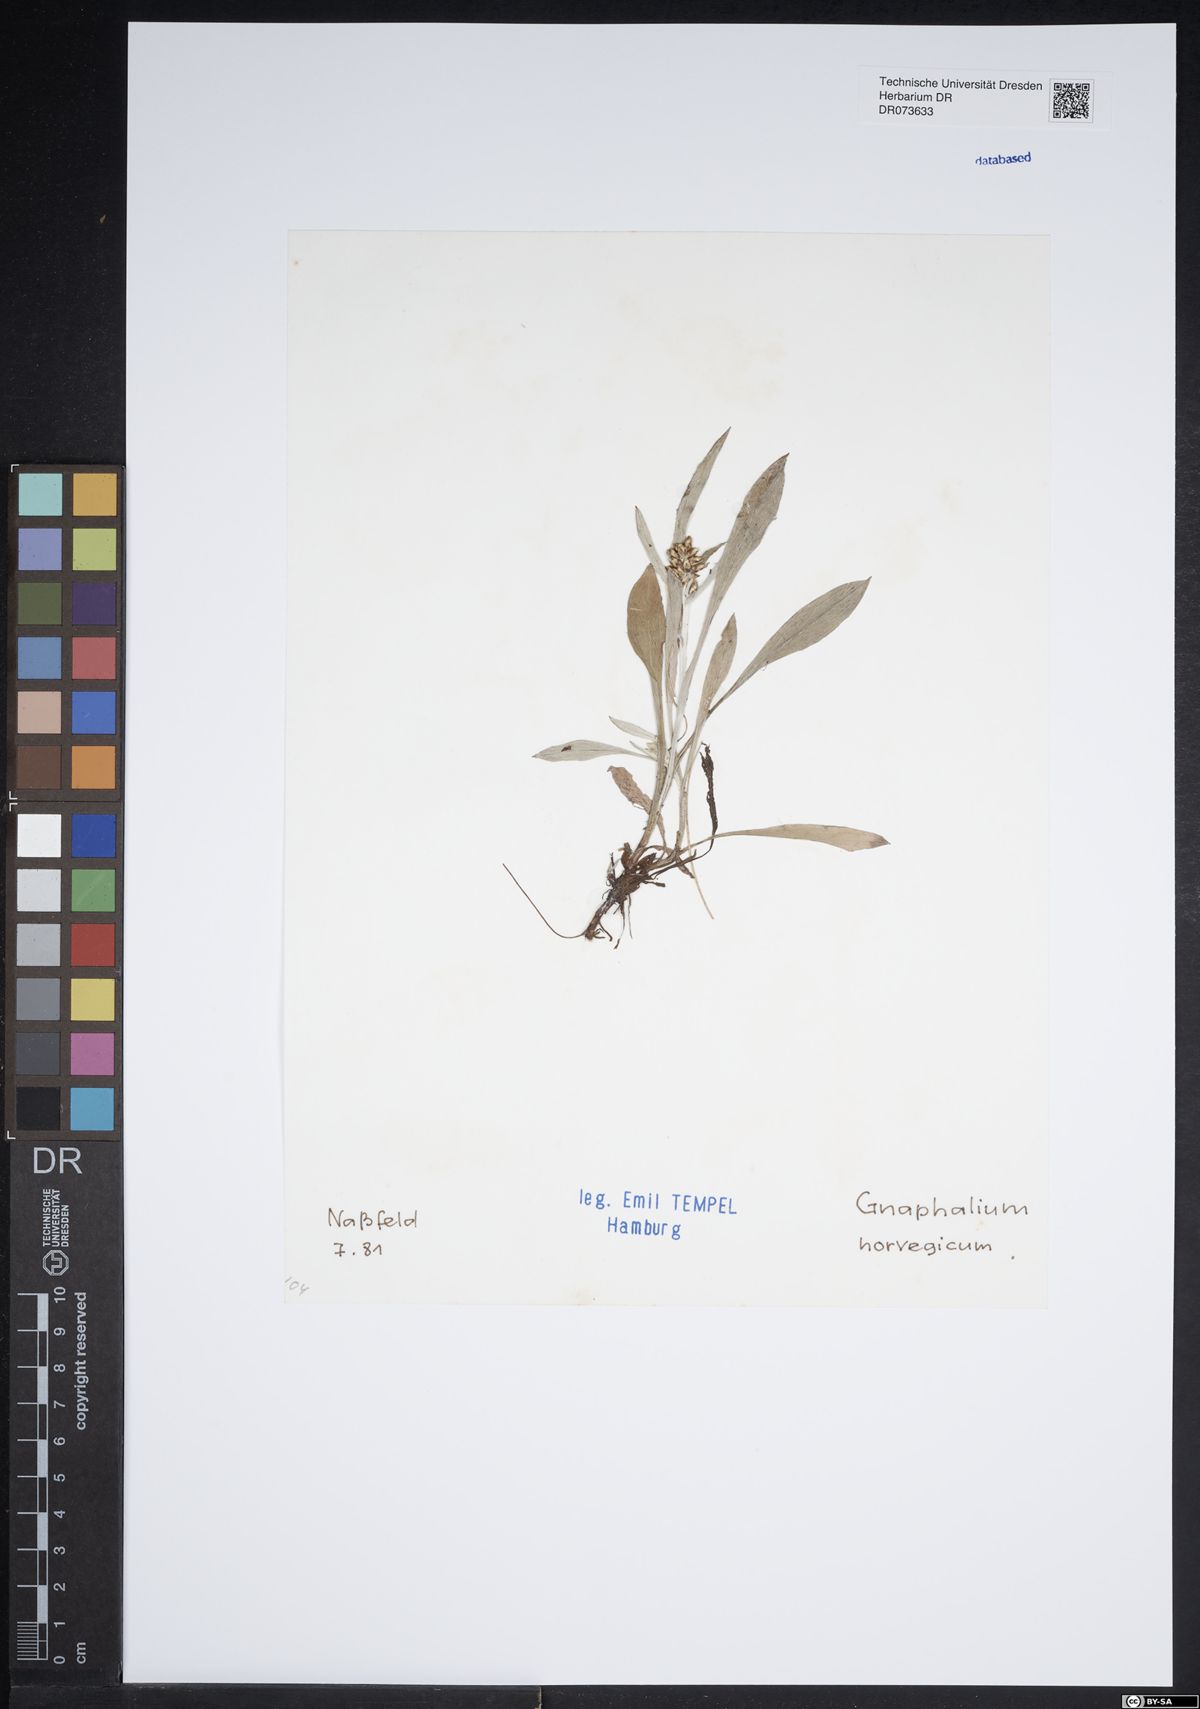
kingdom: Plantae
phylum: Tracheophyta
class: Magnoliopsida
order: Asterales
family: Asteraceae
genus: Omalotheca
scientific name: Omalotheca norvegica
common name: Norwegian arctic-cudweed
